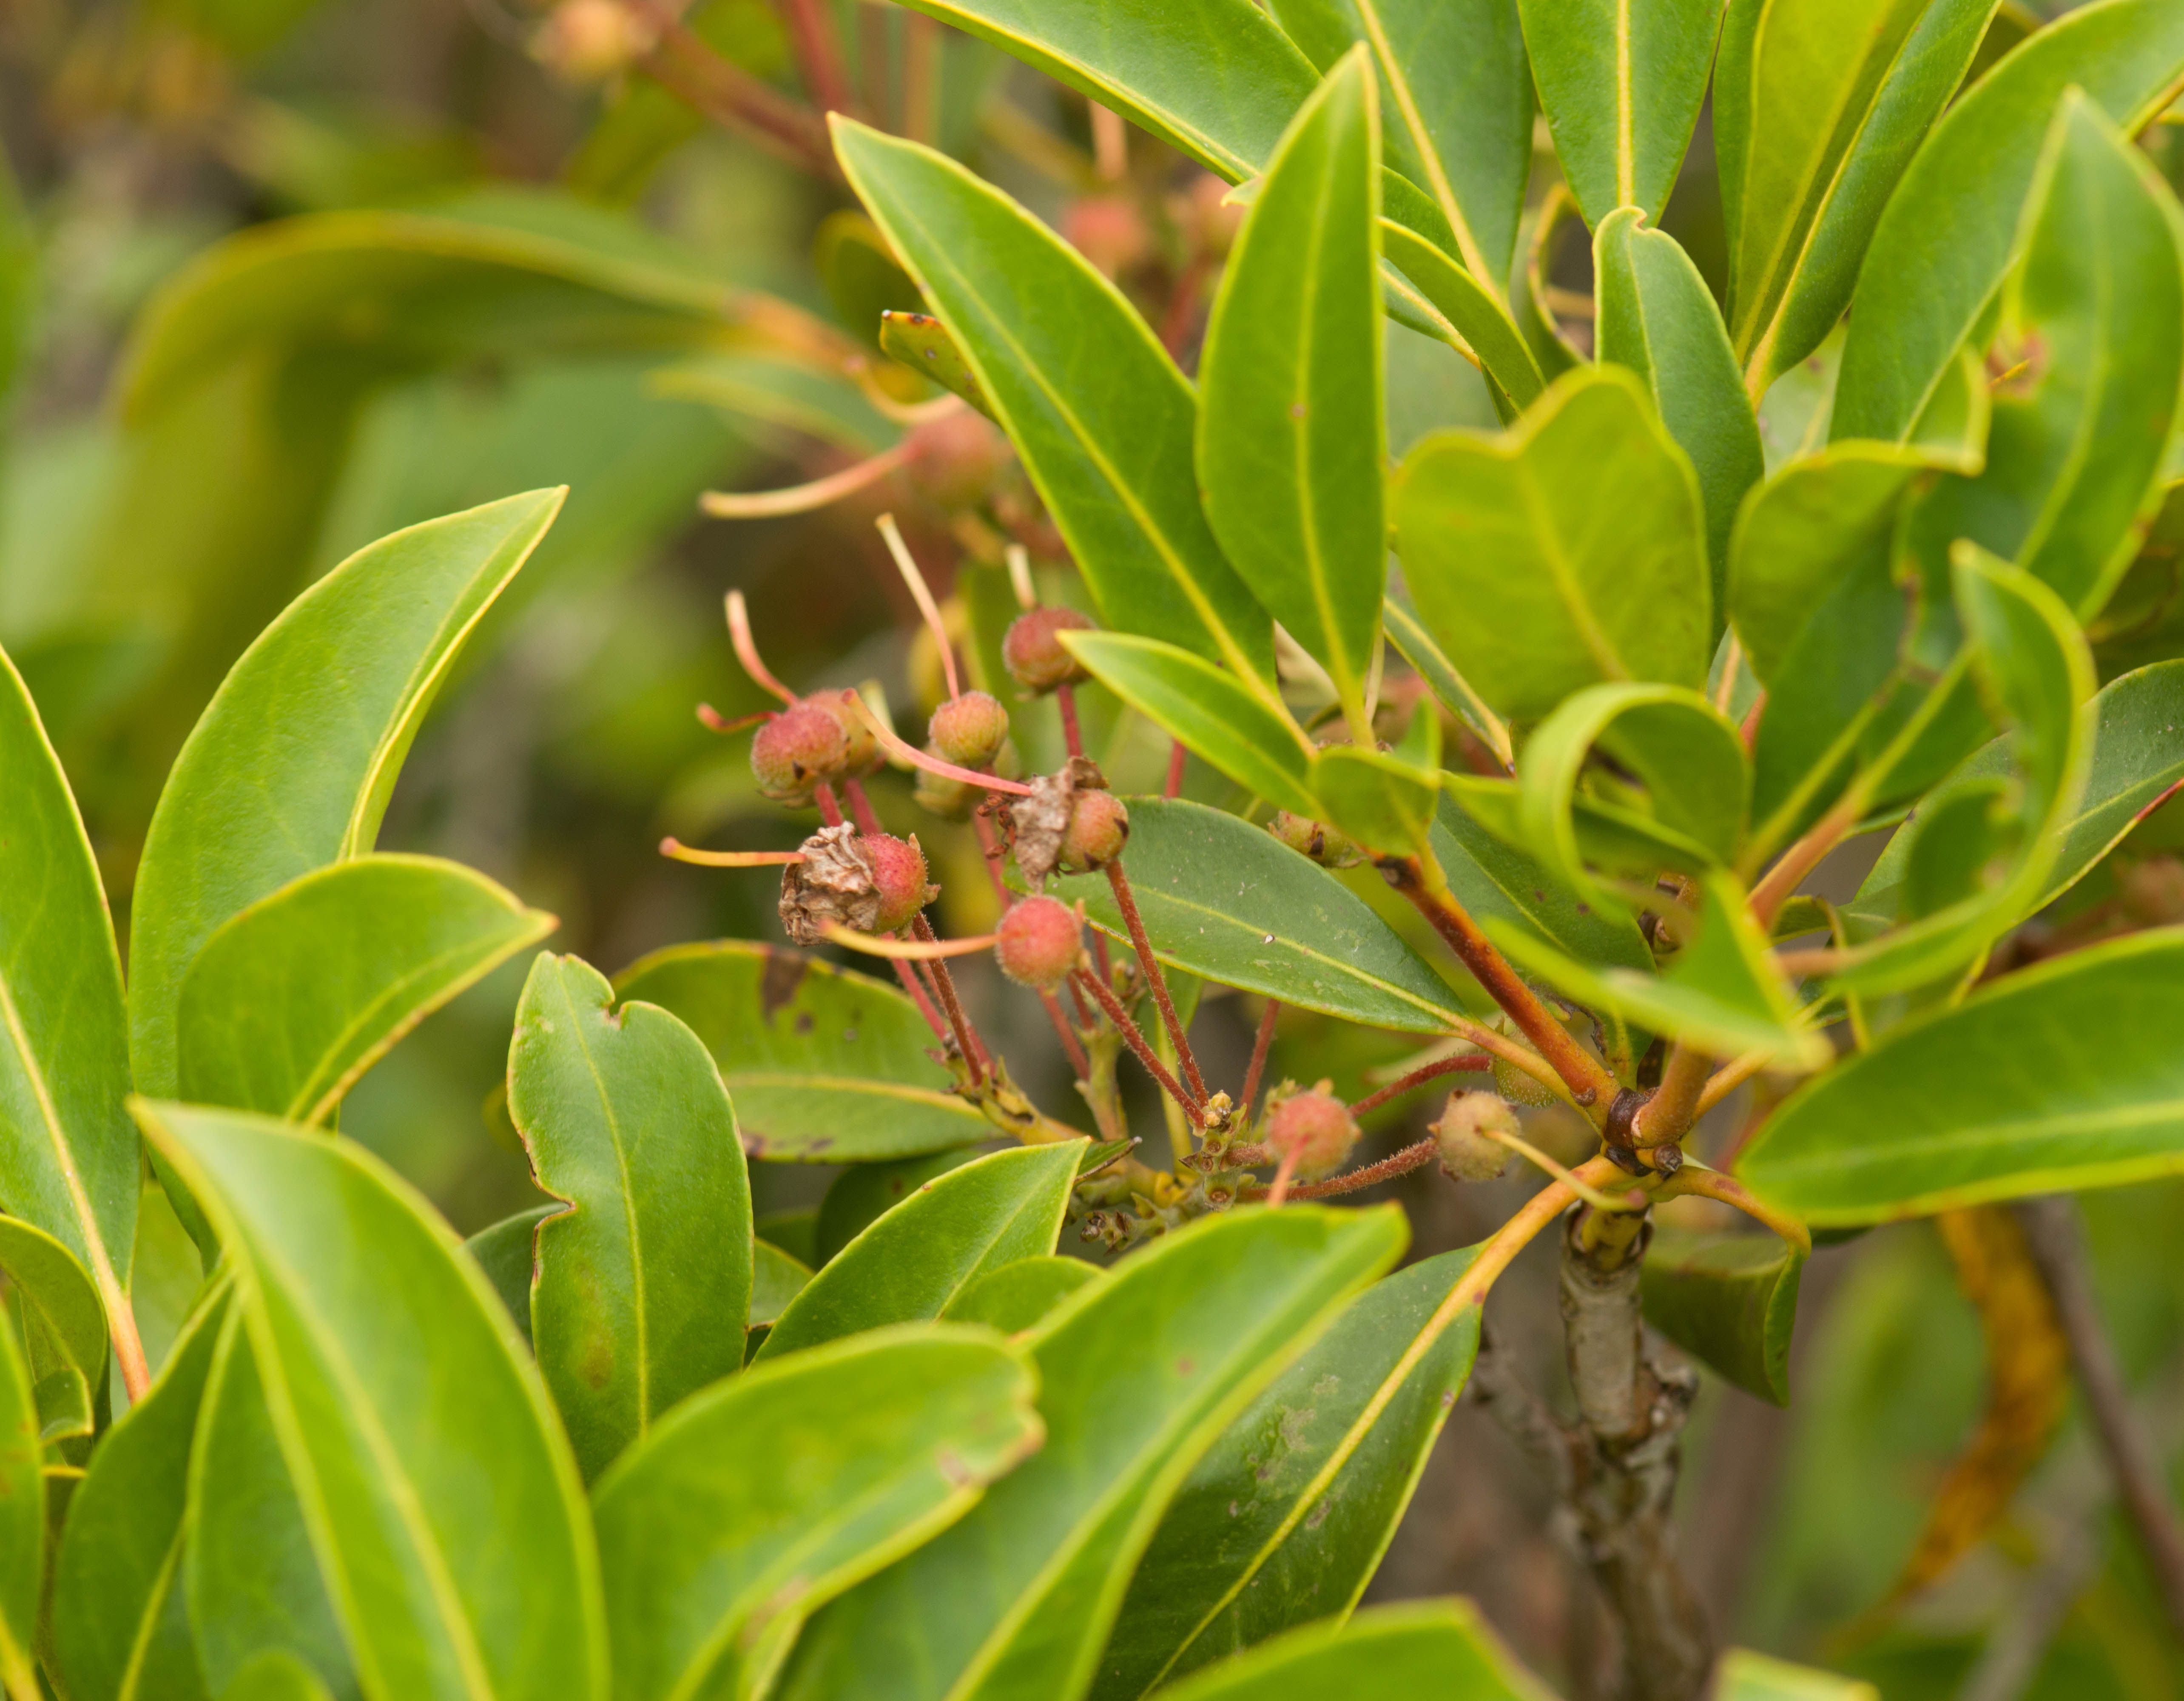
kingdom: Plantae
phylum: Tracheophyta
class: Magnoliopsida
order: Ericales
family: Ericaceae
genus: Kalmia
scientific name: Kalmia latifolia
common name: Mountain-laurel
